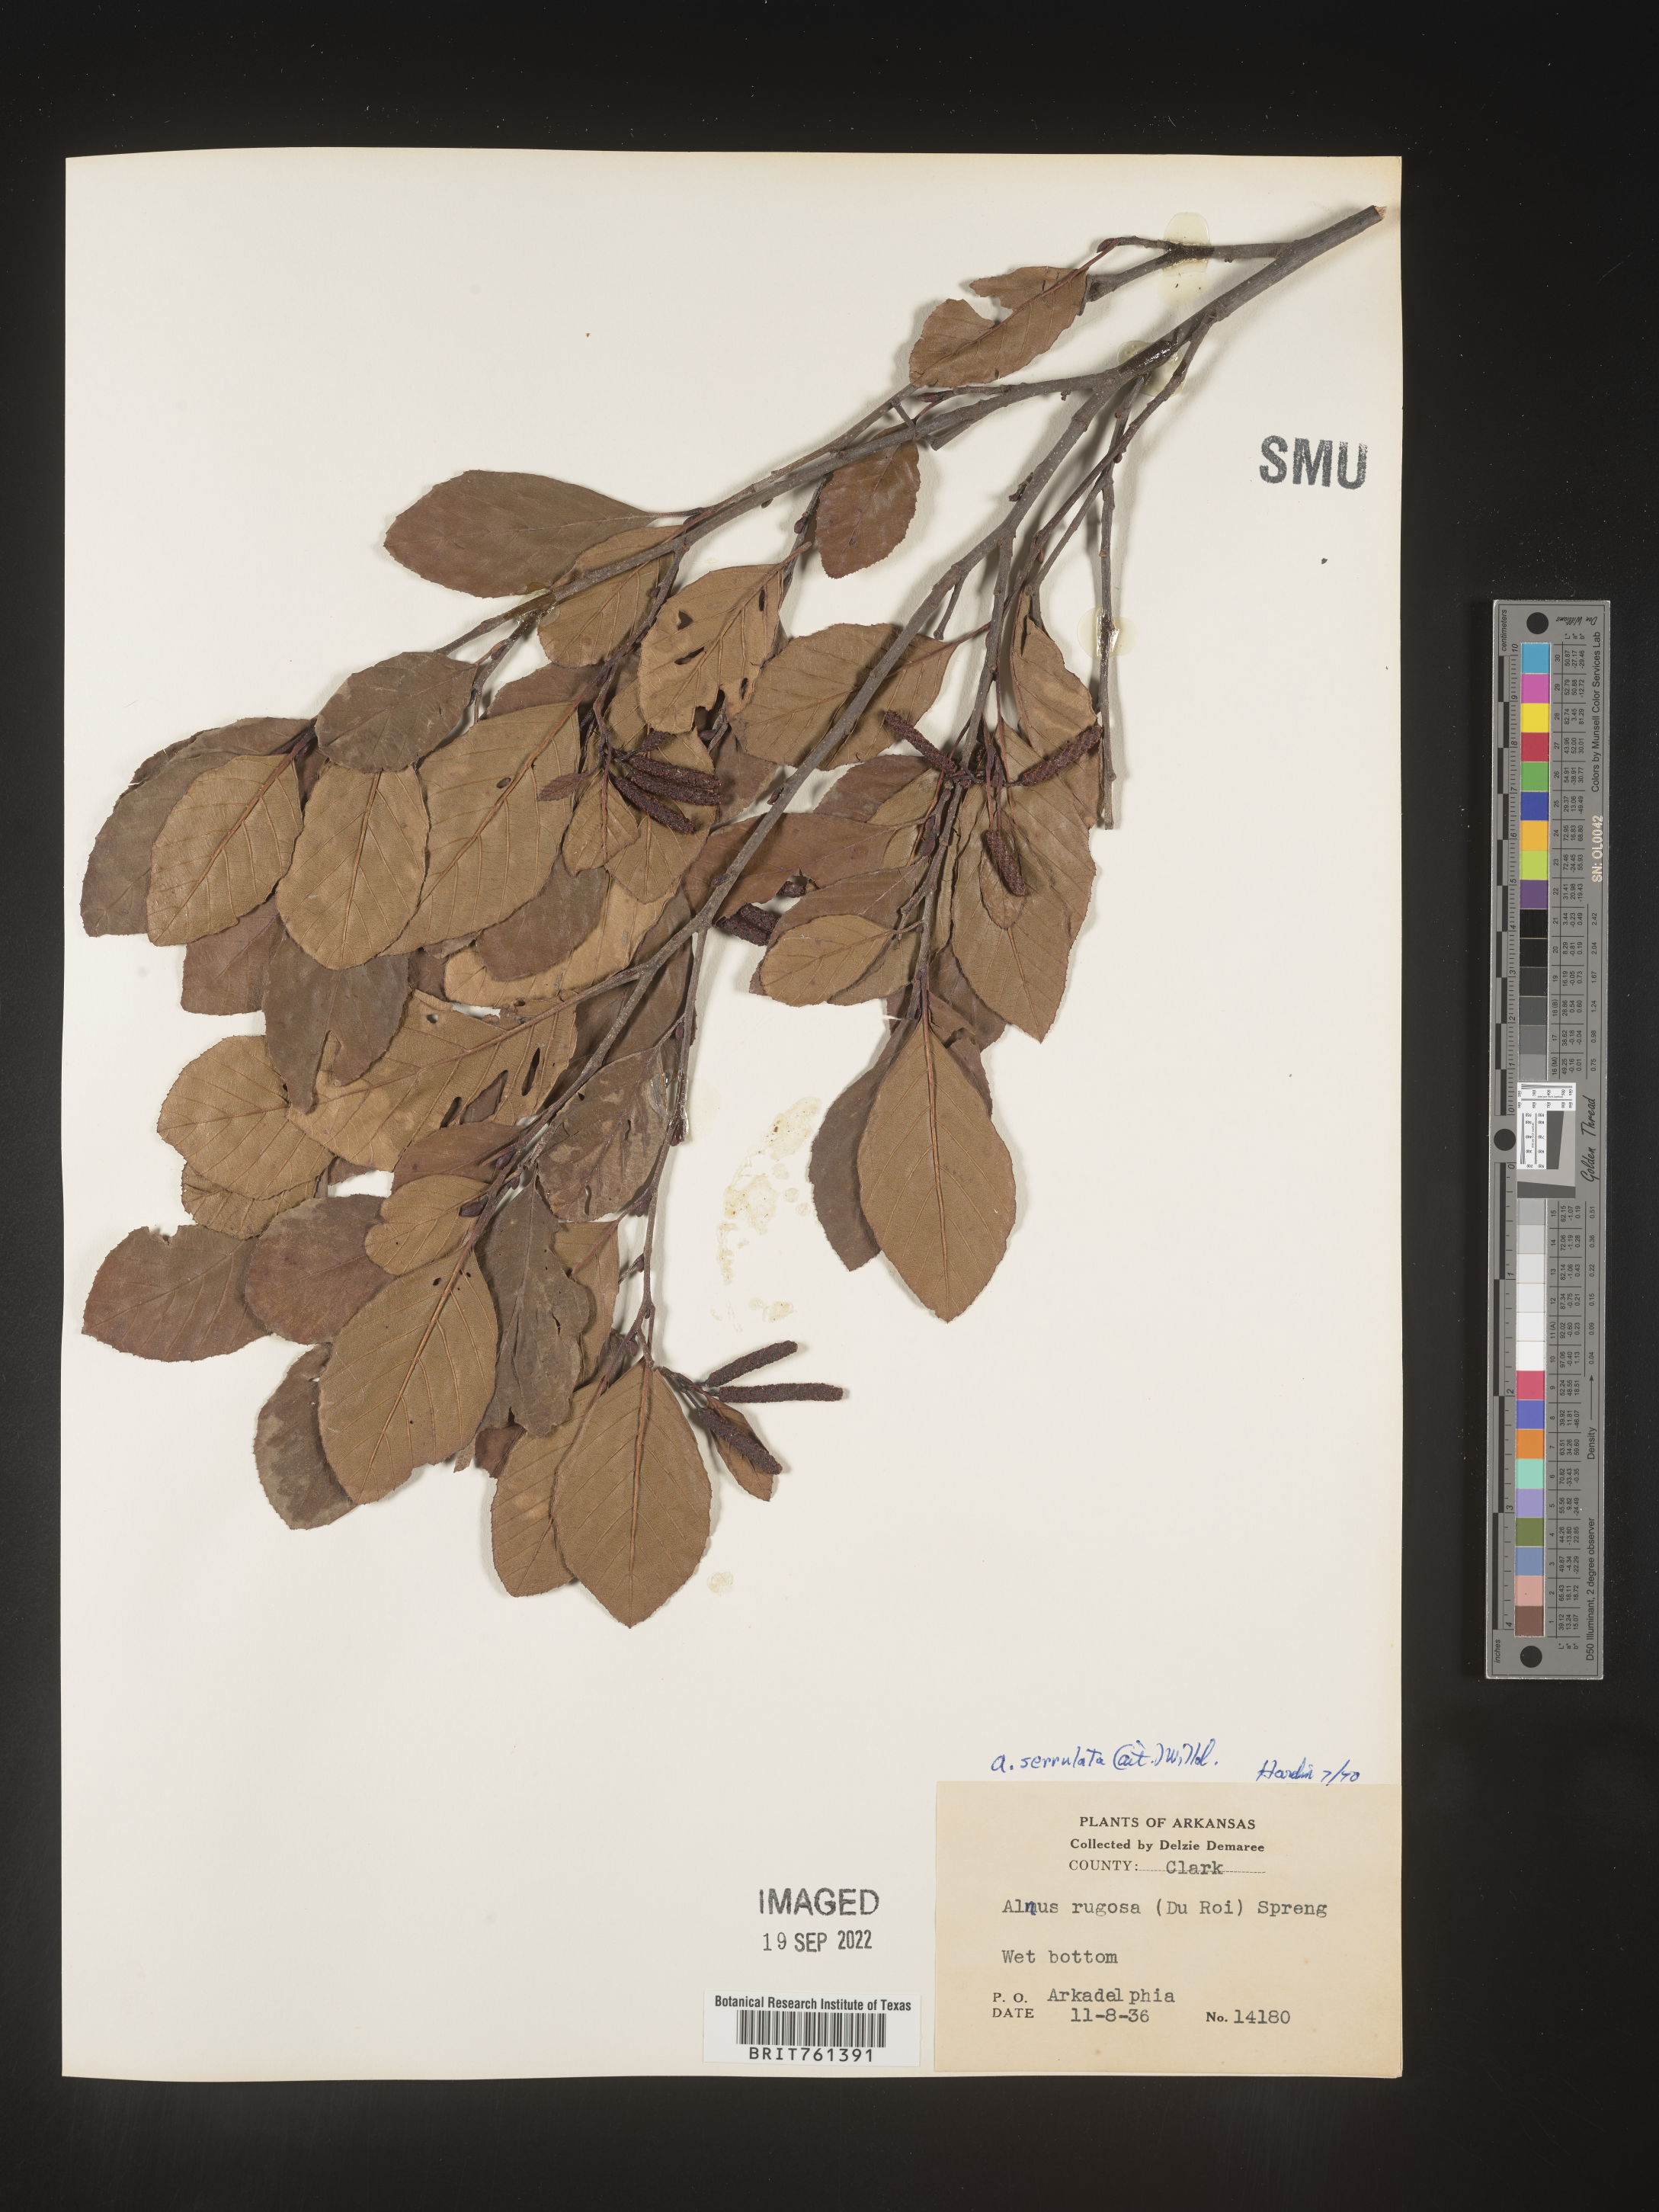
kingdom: Plantae
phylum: Tracheophyta
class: Magnoliopsida
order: Fagales
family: Betulaceae
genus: Alnus
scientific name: Alnus serrulata
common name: Hazel alder
